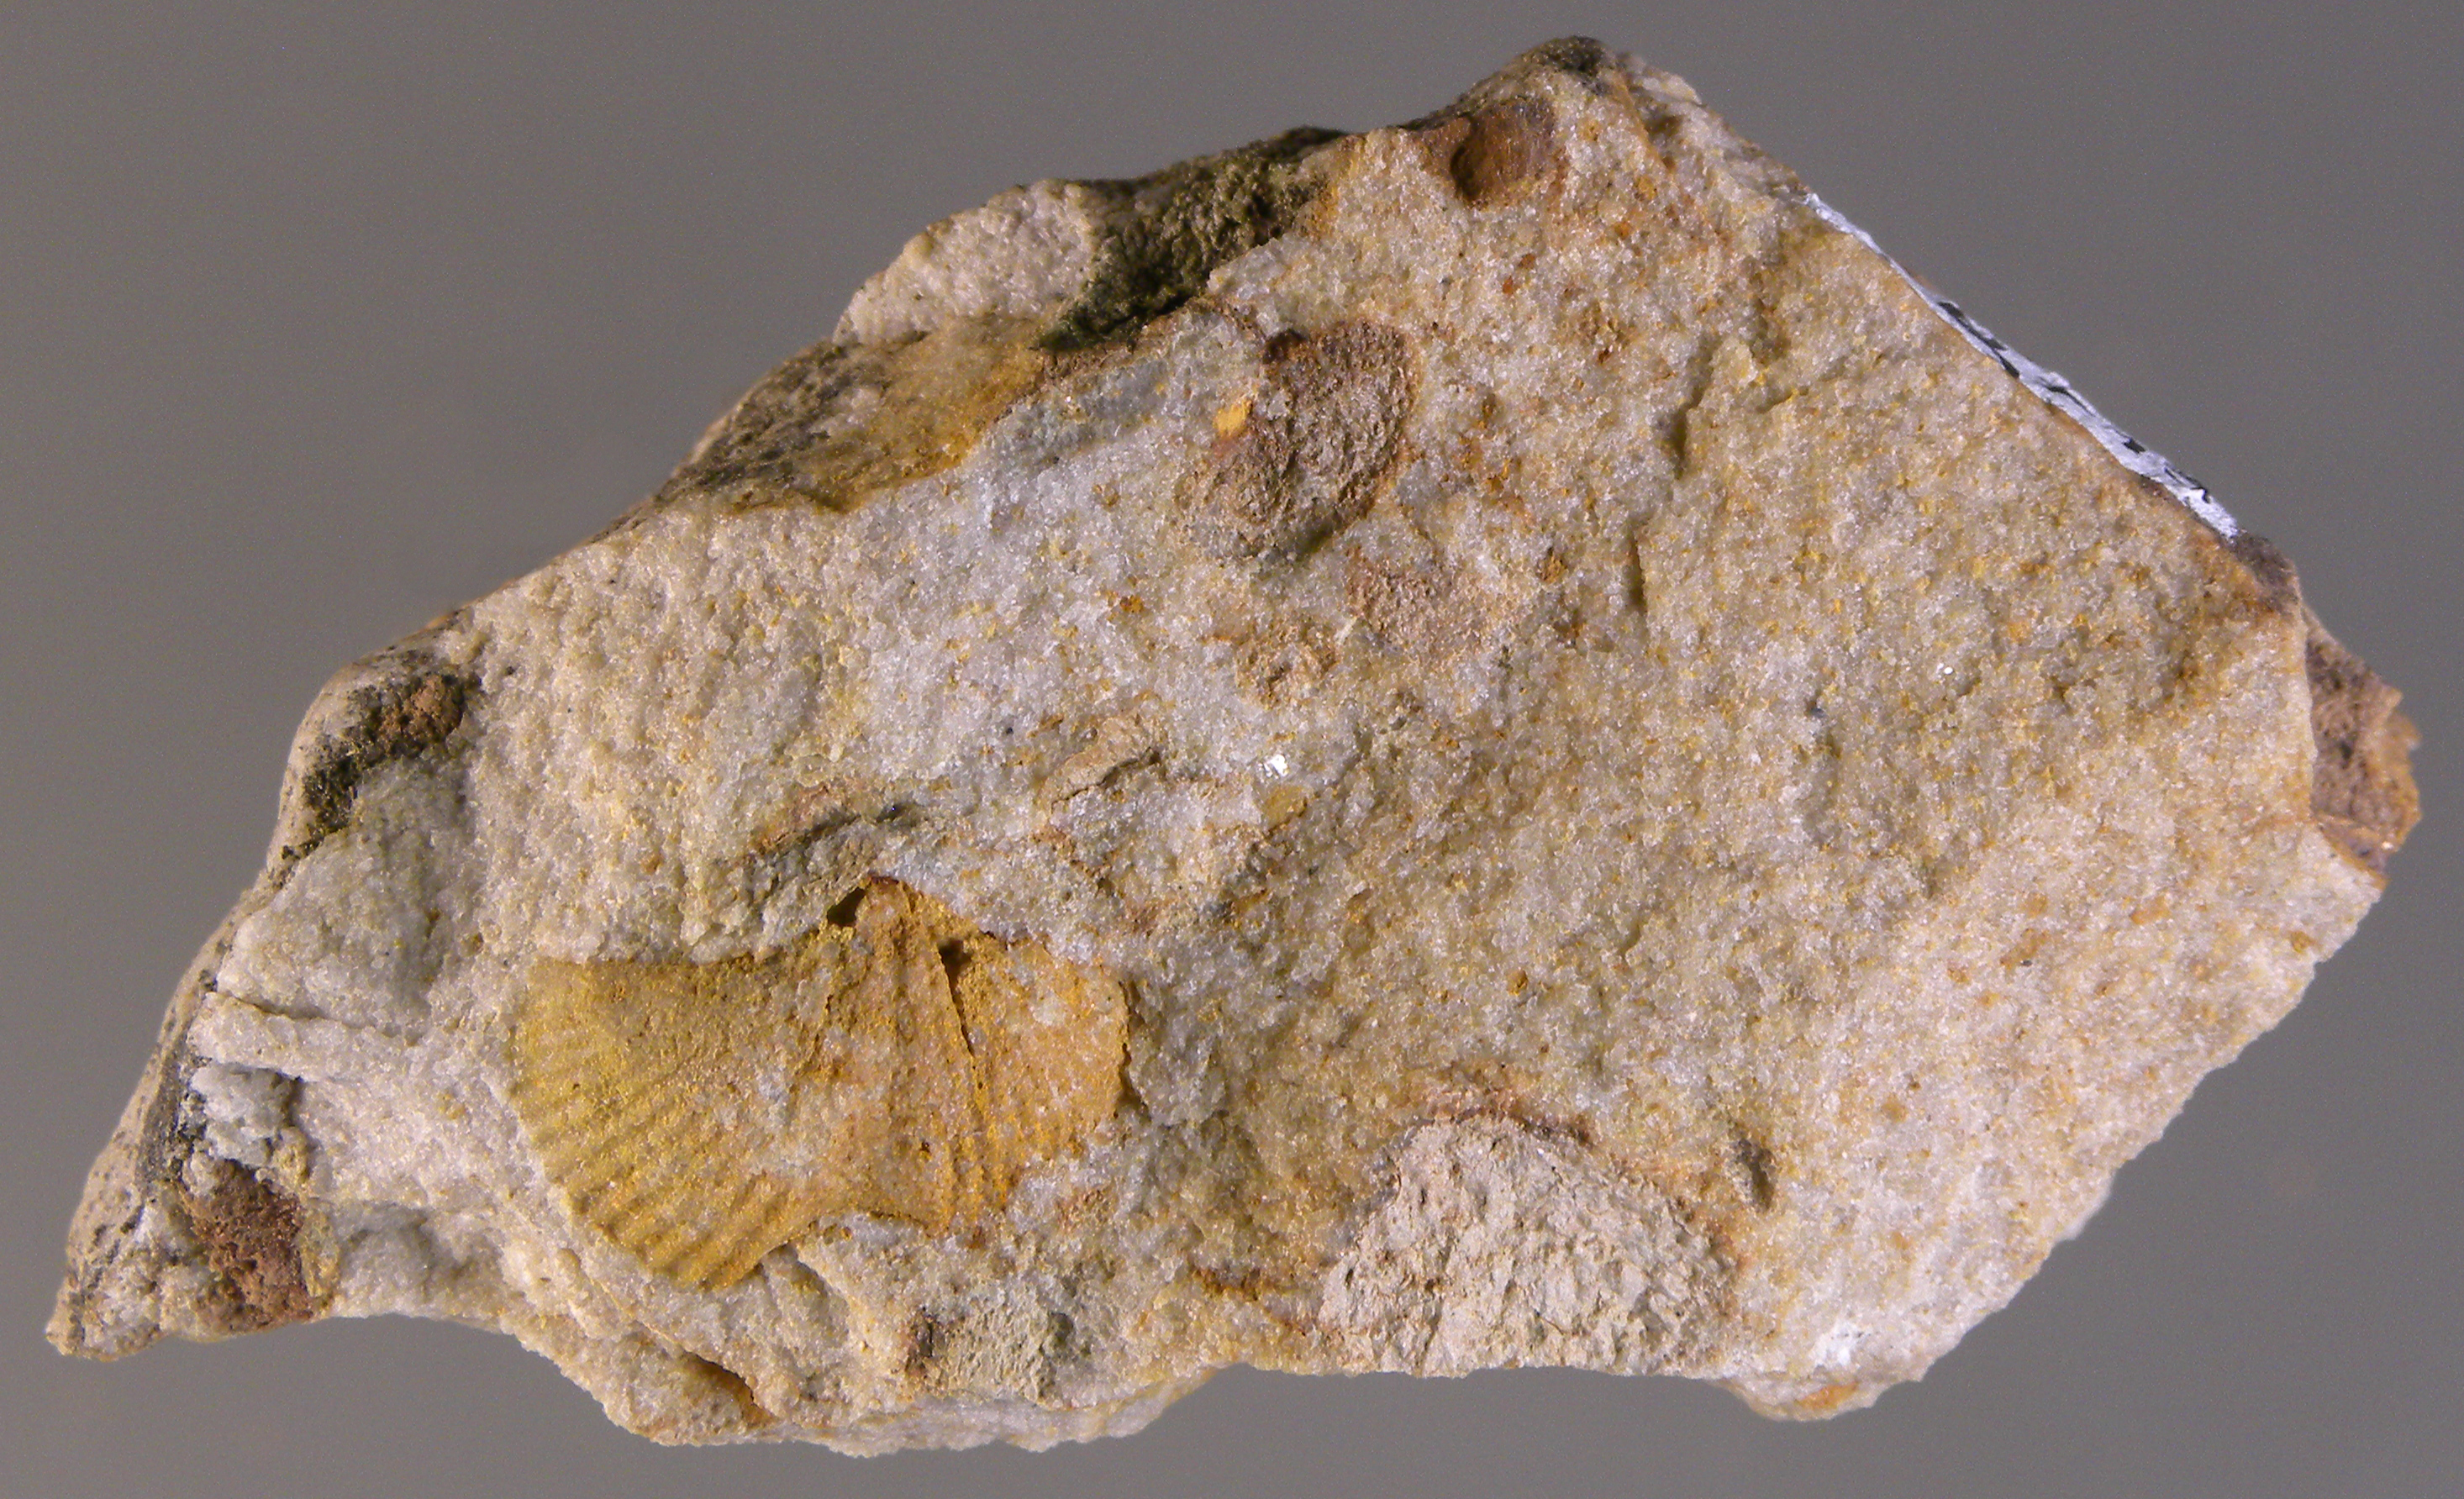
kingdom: Animalia
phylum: Brachiopoda
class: Rhynchonellata
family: Spinocyrtiidae
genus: Subcuspidella
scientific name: Subcuspidella
